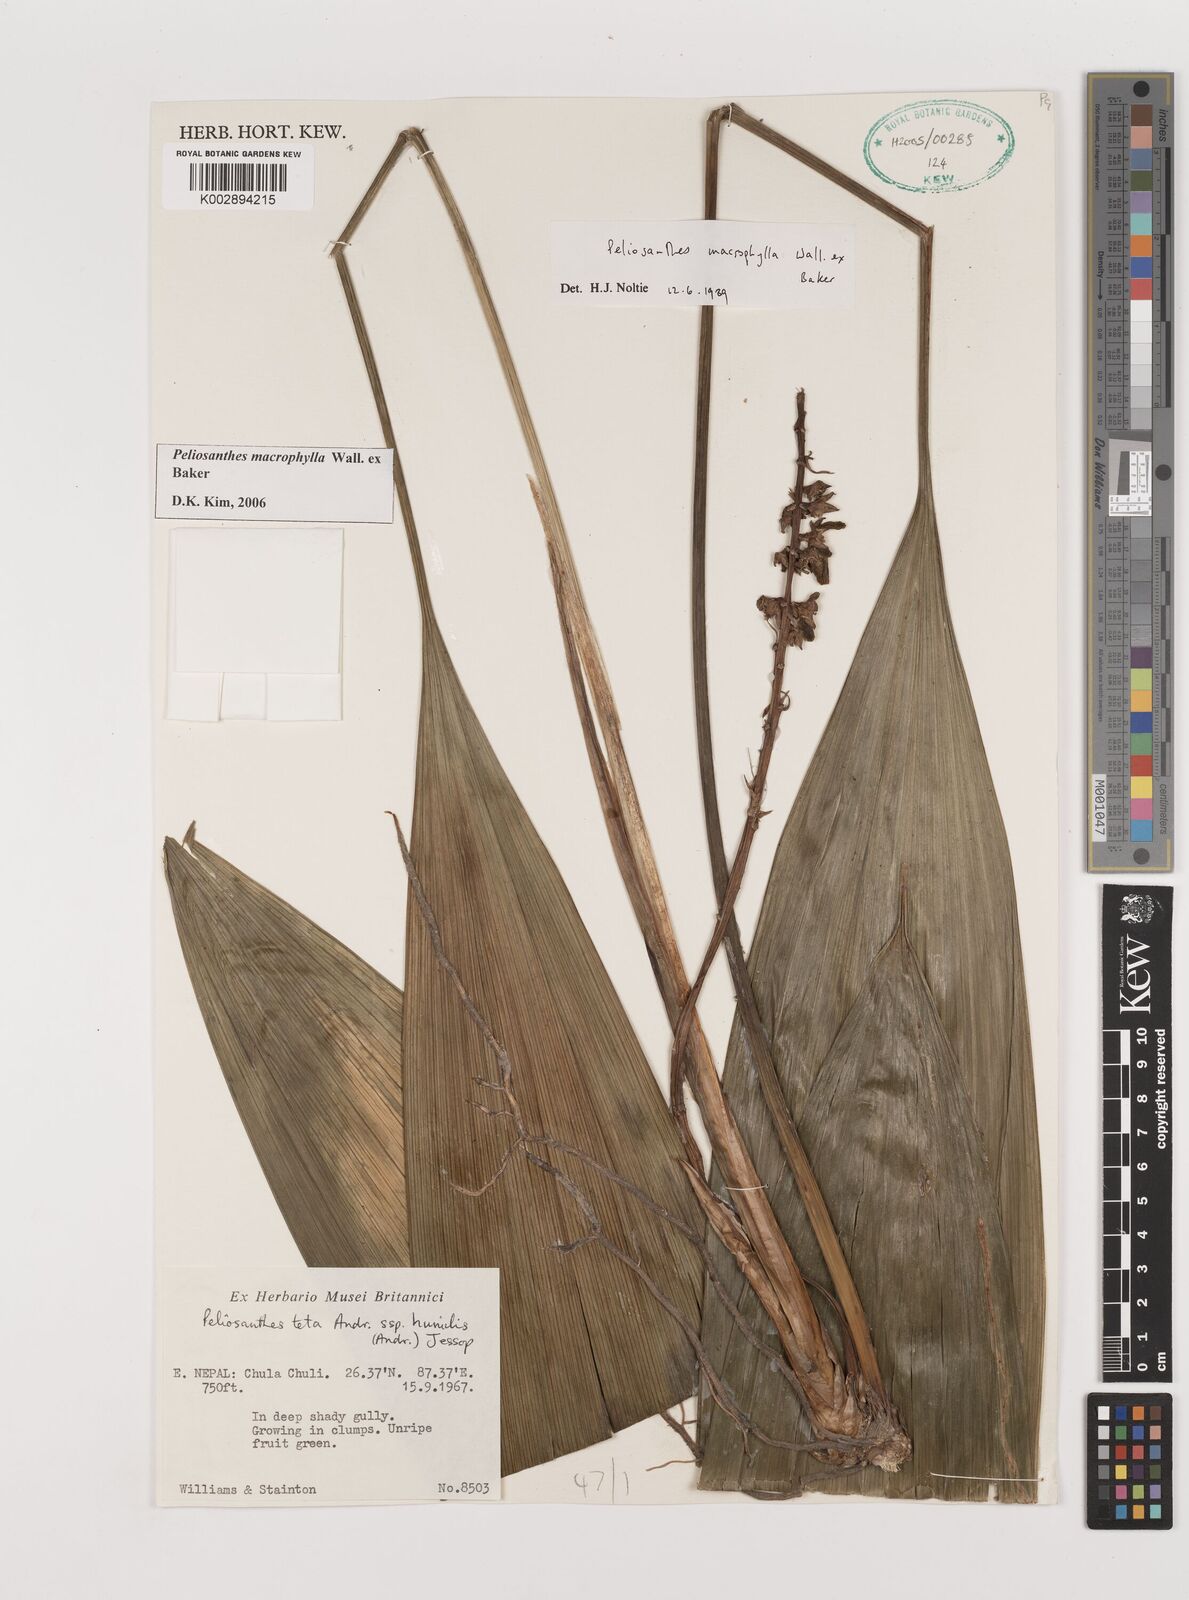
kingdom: Plantae
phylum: Tracheophyta
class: Liliopsida
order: Asparagales
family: Asparagaceae
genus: Peliosanthes
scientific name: Peliosanthes teta
